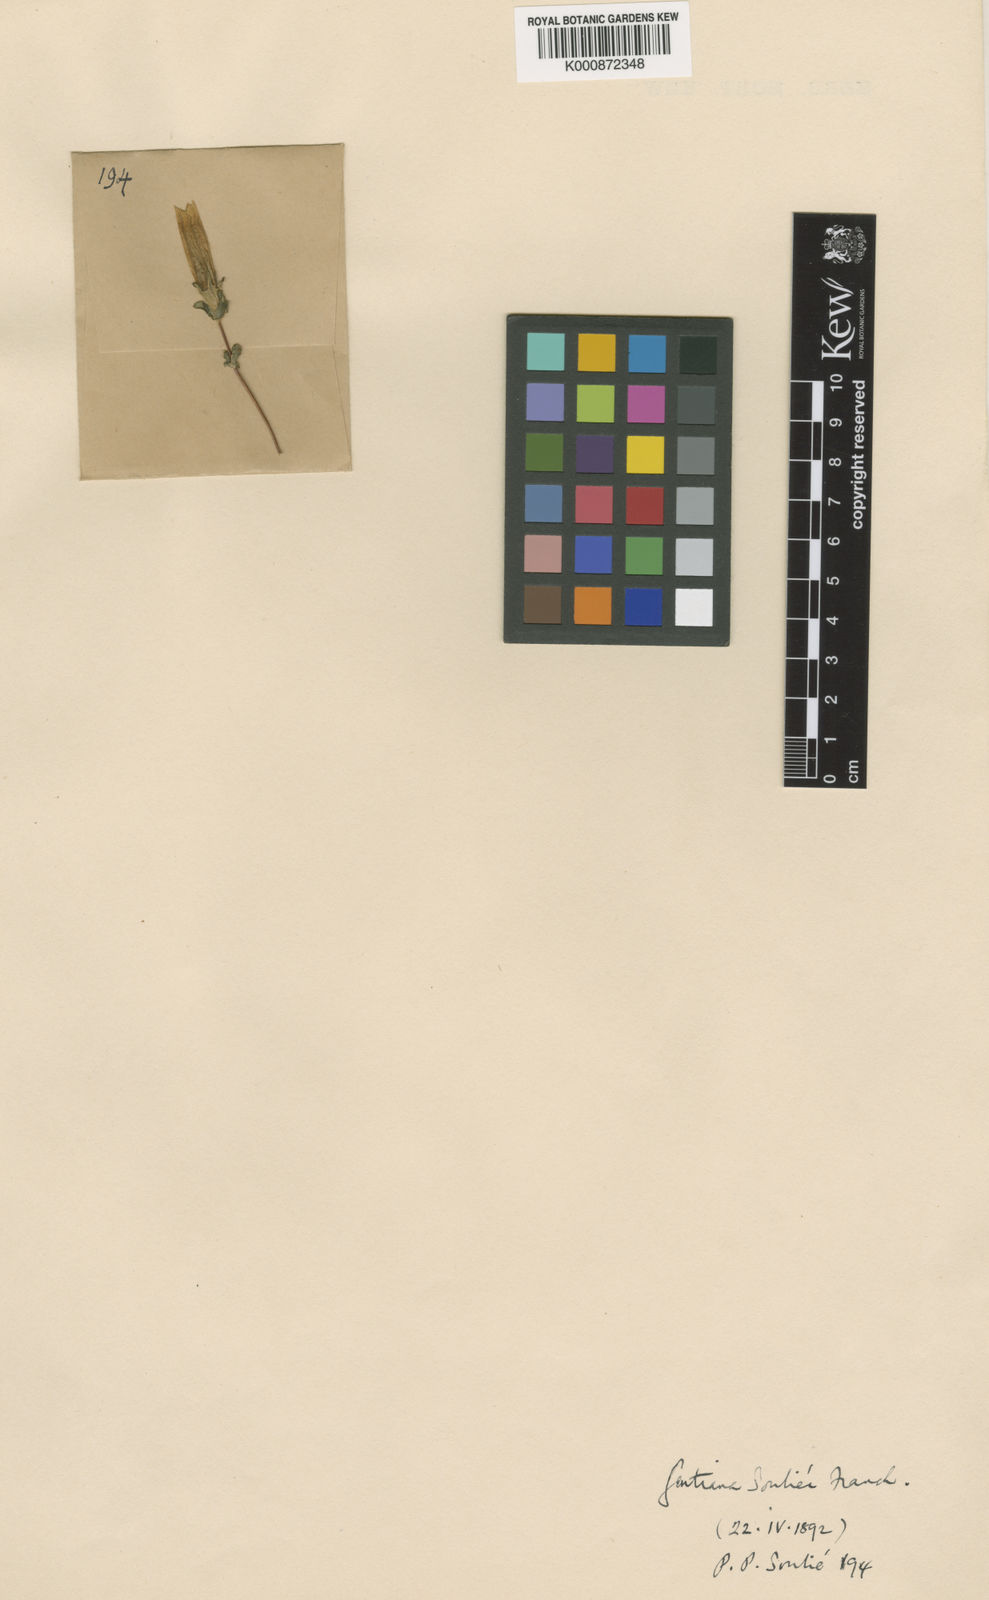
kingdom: Plantae
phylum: Tracheophyta
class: Magnoliopsida
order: Gentianales
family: Gentianaceae
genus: Sinogentiana
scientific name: Sinogentiana souliei
